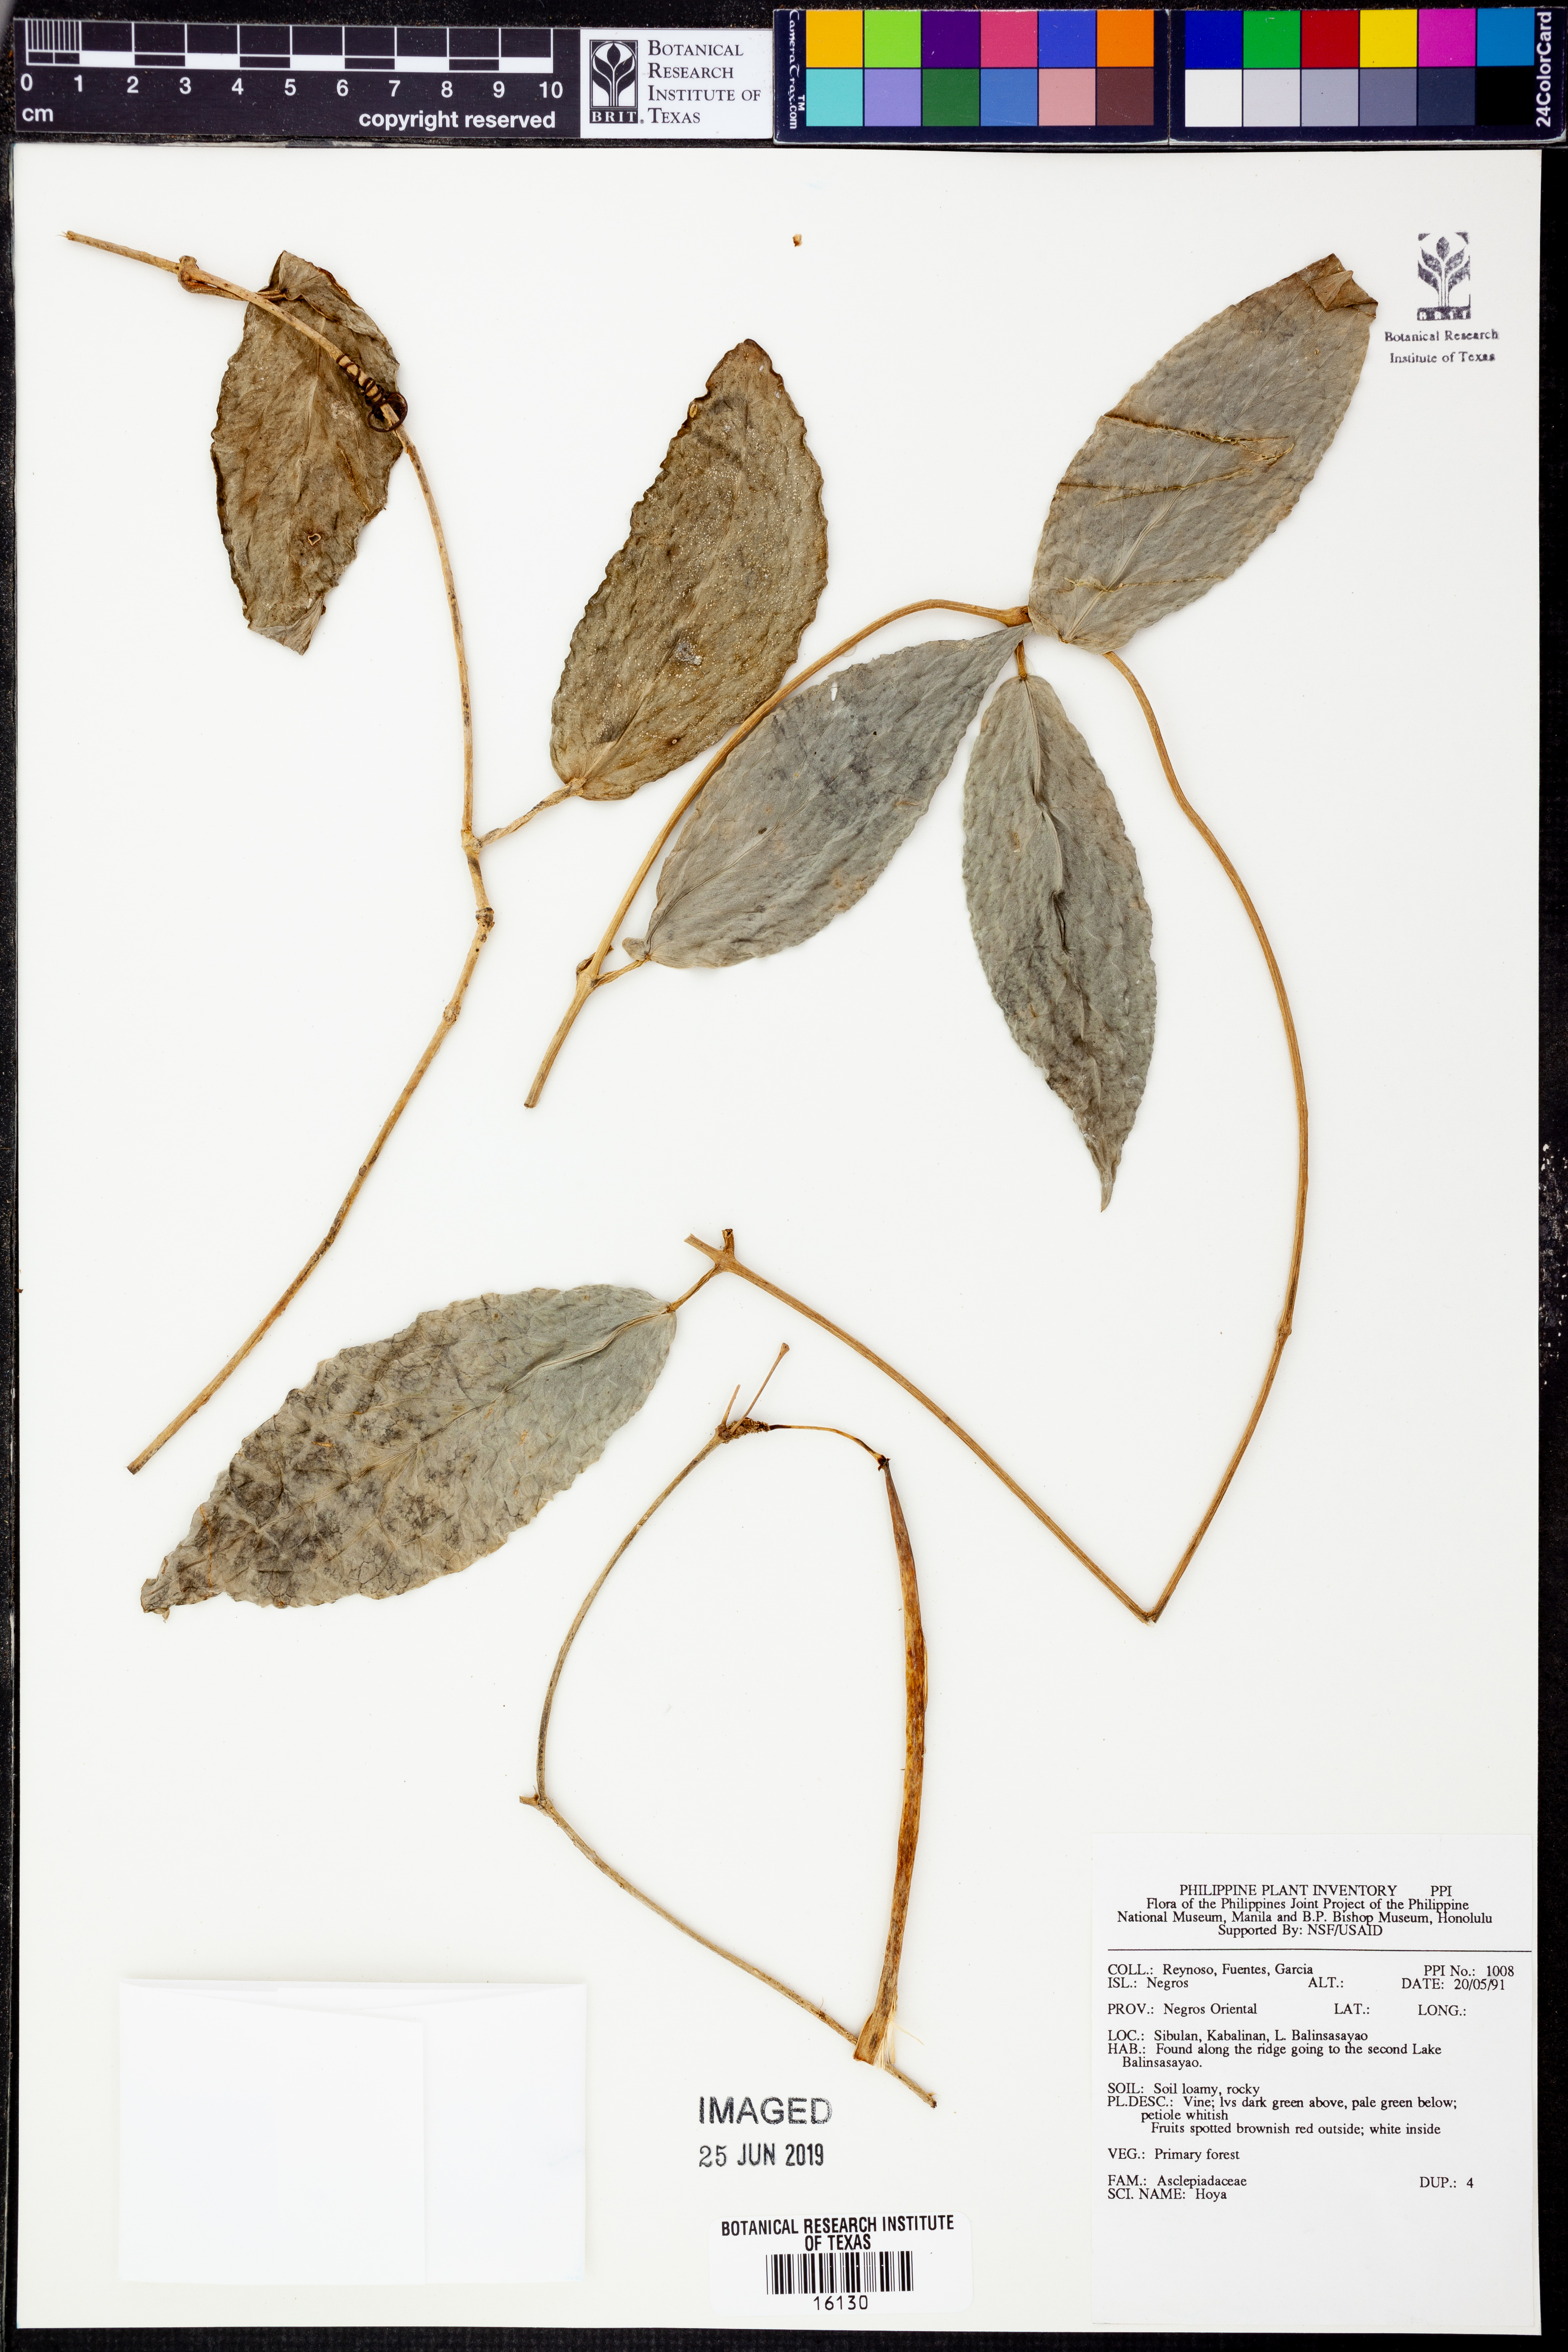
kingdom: Plantae
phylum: Tracheophyta
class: Magnoliopsida
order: Gentianales
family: Apocynaceae
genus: Hoya
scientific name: Hoya
